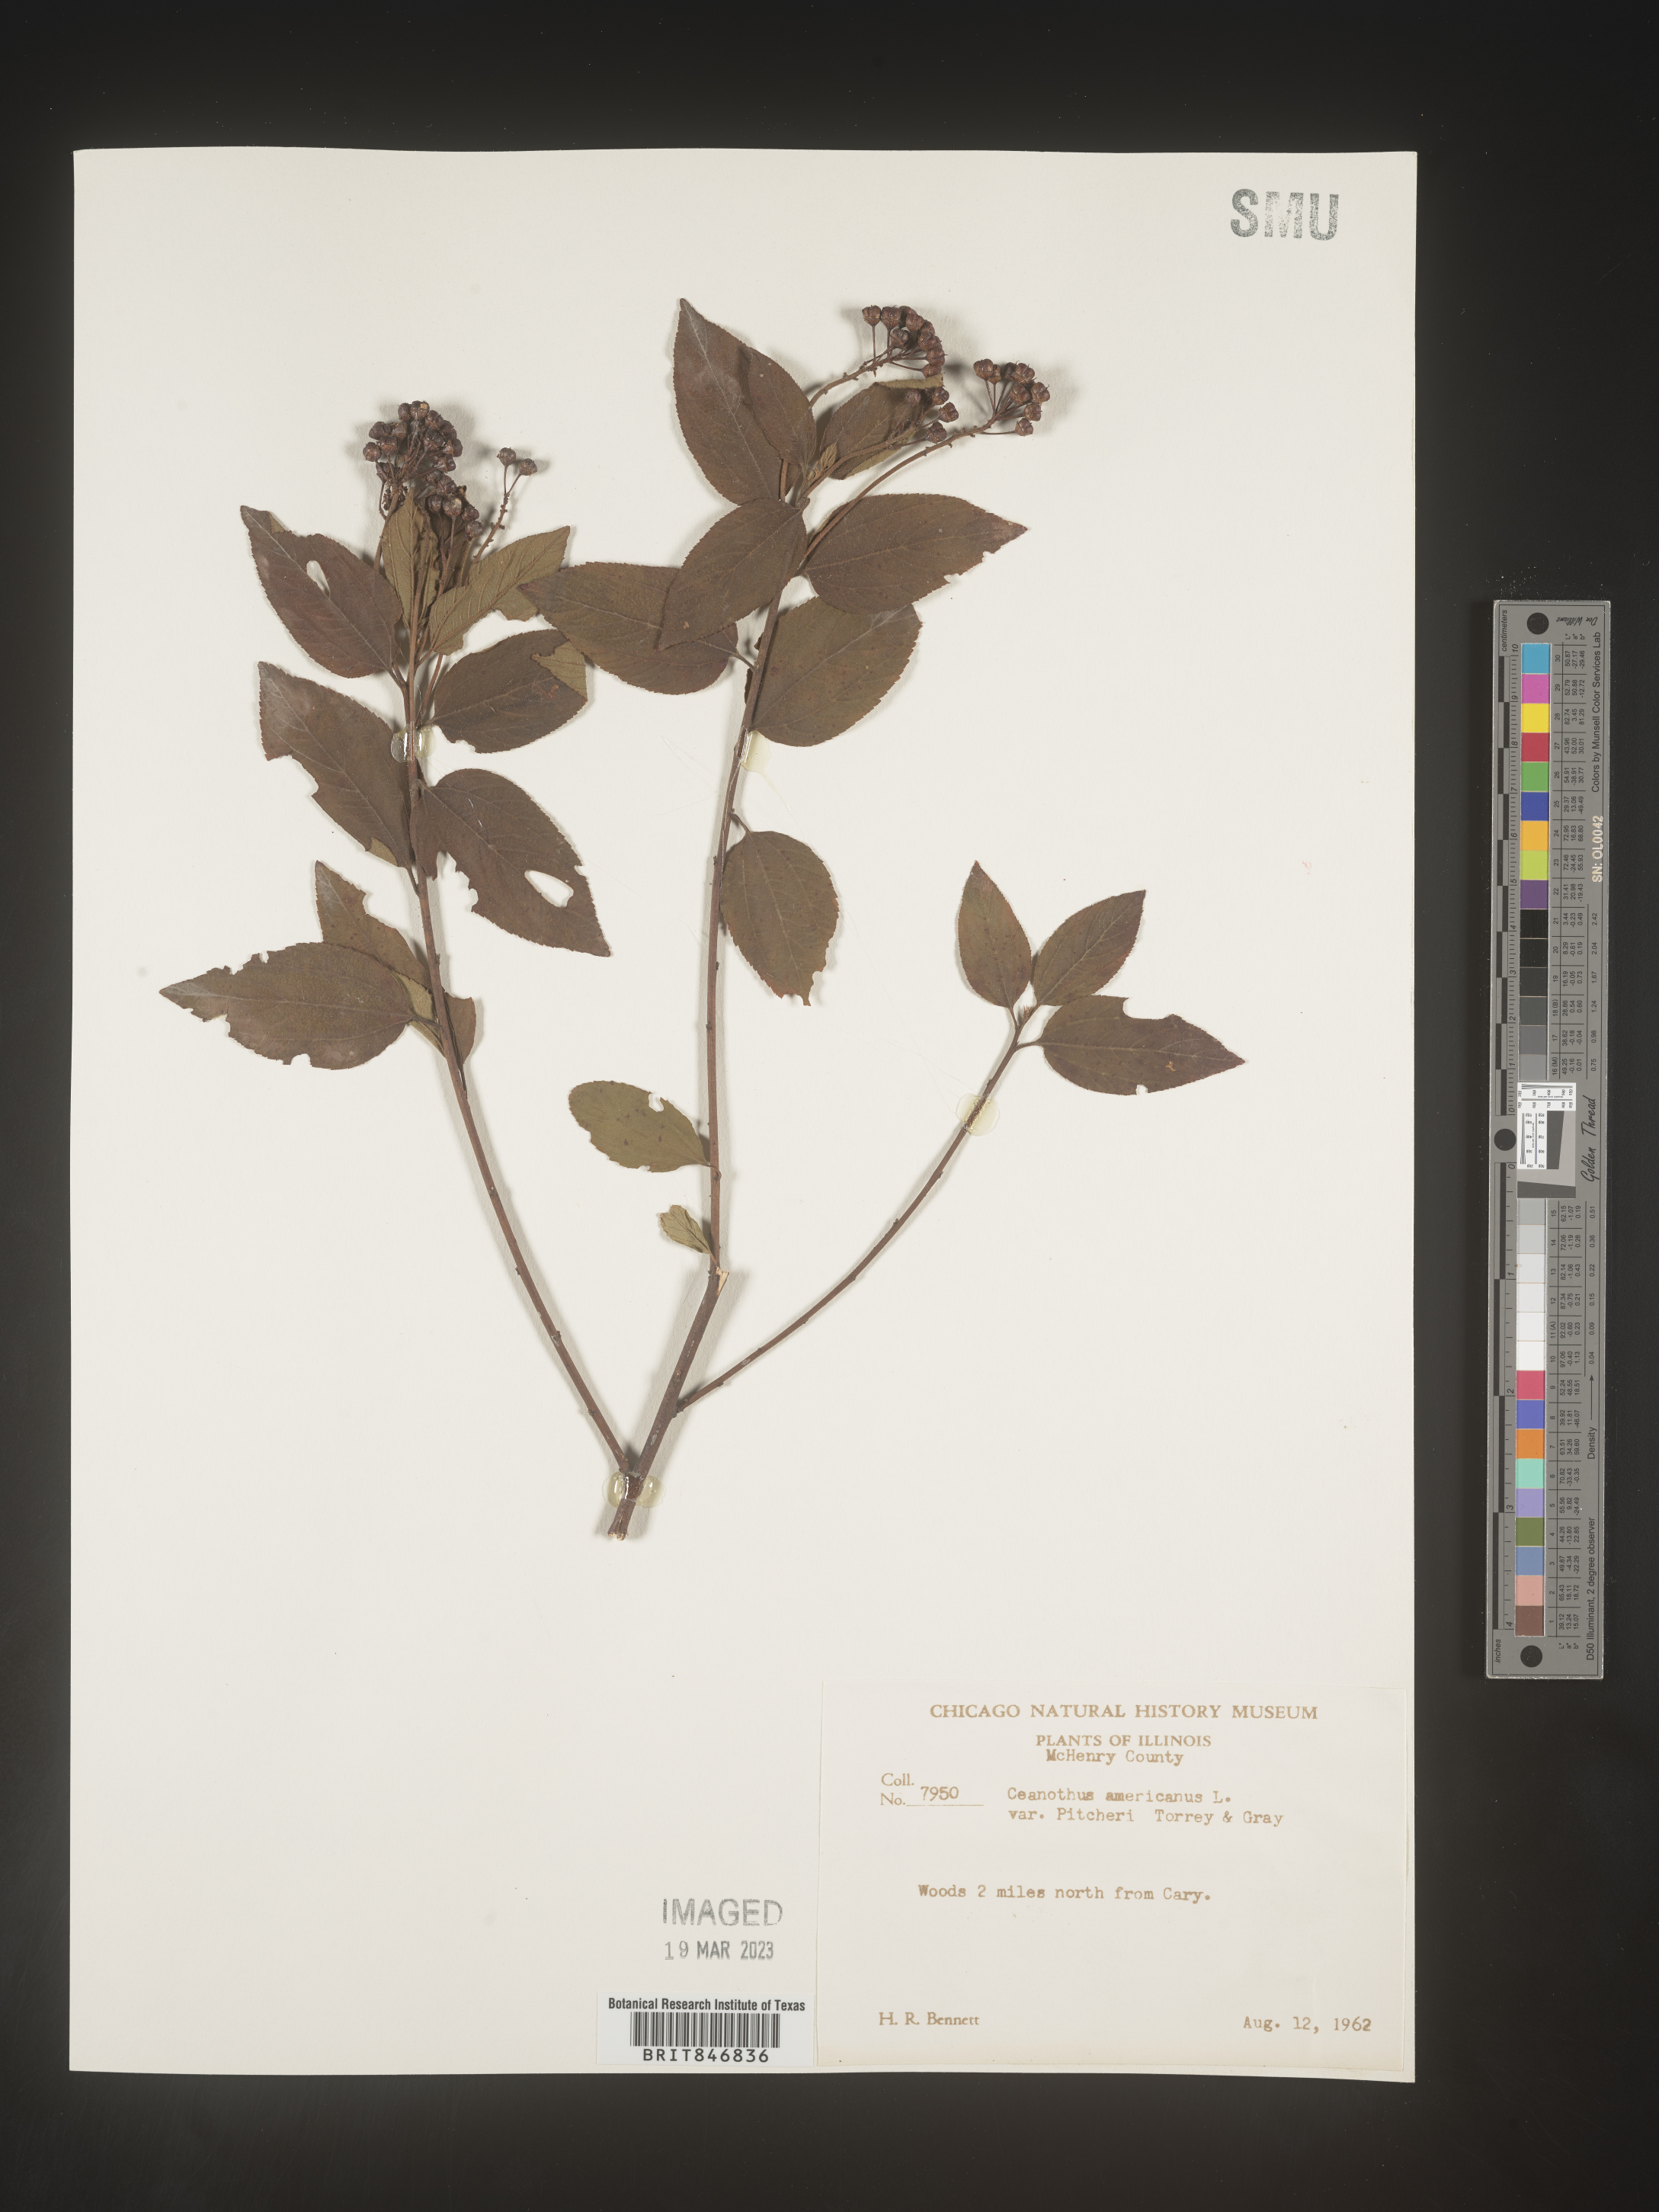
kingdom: Plantae
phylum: Tracheophyta
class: Magnoliopsida
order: Rosales
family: Rhamnaceae
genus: Ceanothus
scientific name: Ceanothus americanus
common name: Redroot
